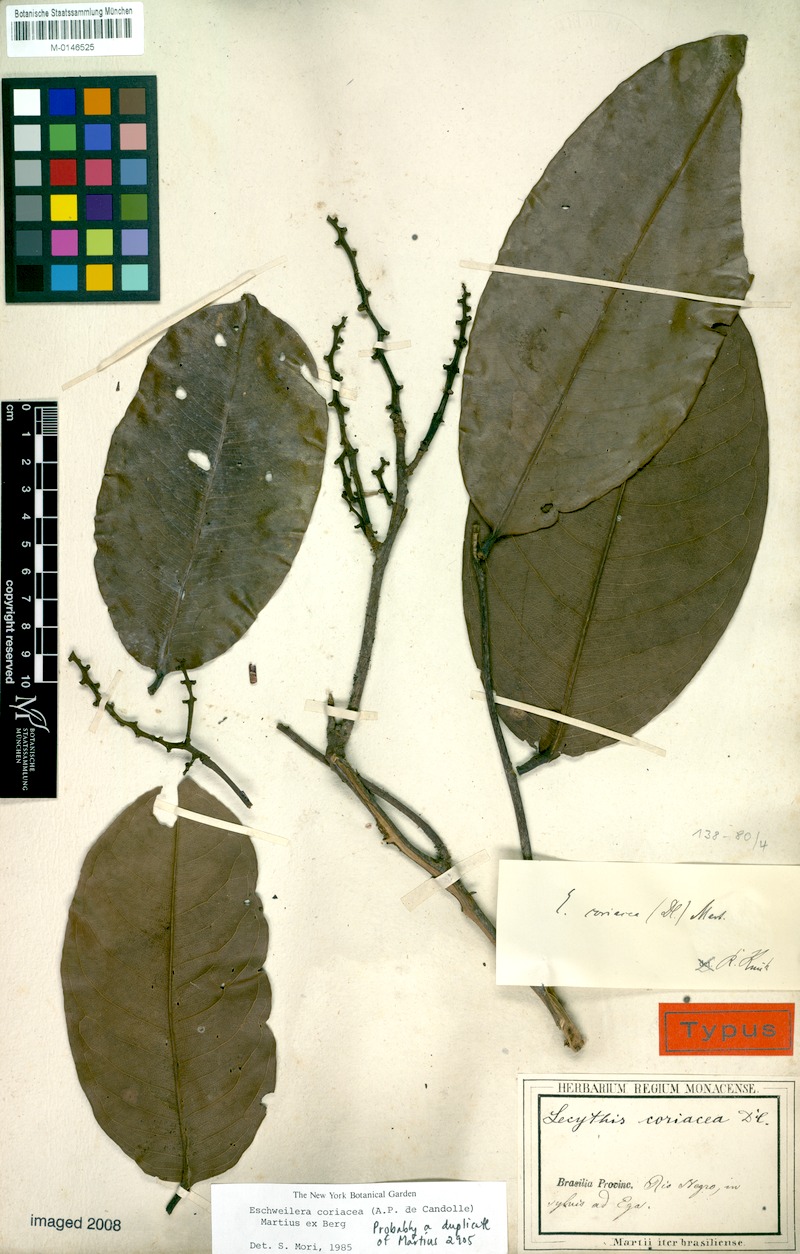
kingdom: Plantae
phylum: Tracheophyta
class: Magnoliopsida
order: Ericales
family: Lecythidaceae
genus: Eschweilera
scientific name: Eschweilera coriacea
